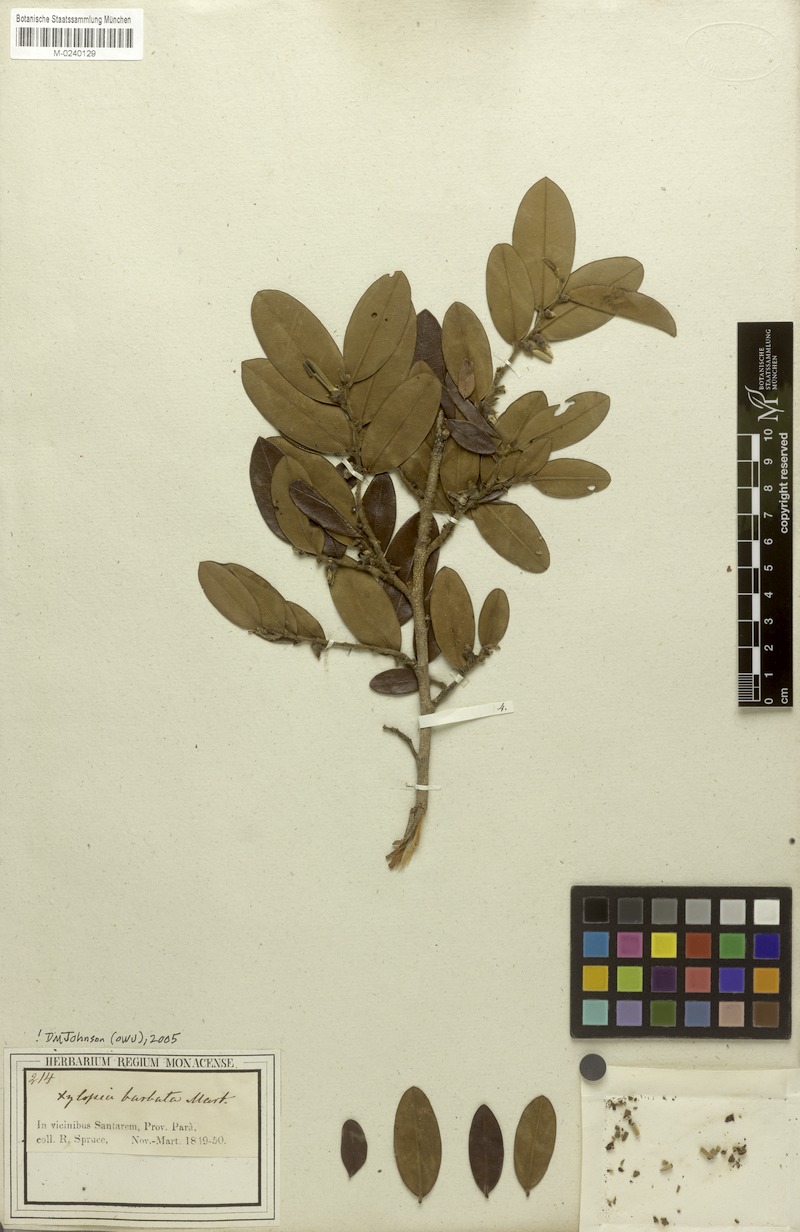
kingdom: Plantae
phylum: Tracheophyta
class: Magnoliopsida
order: Magnoliales
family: Annonaceae
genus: Xylopia
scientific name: Xylopia barbata
